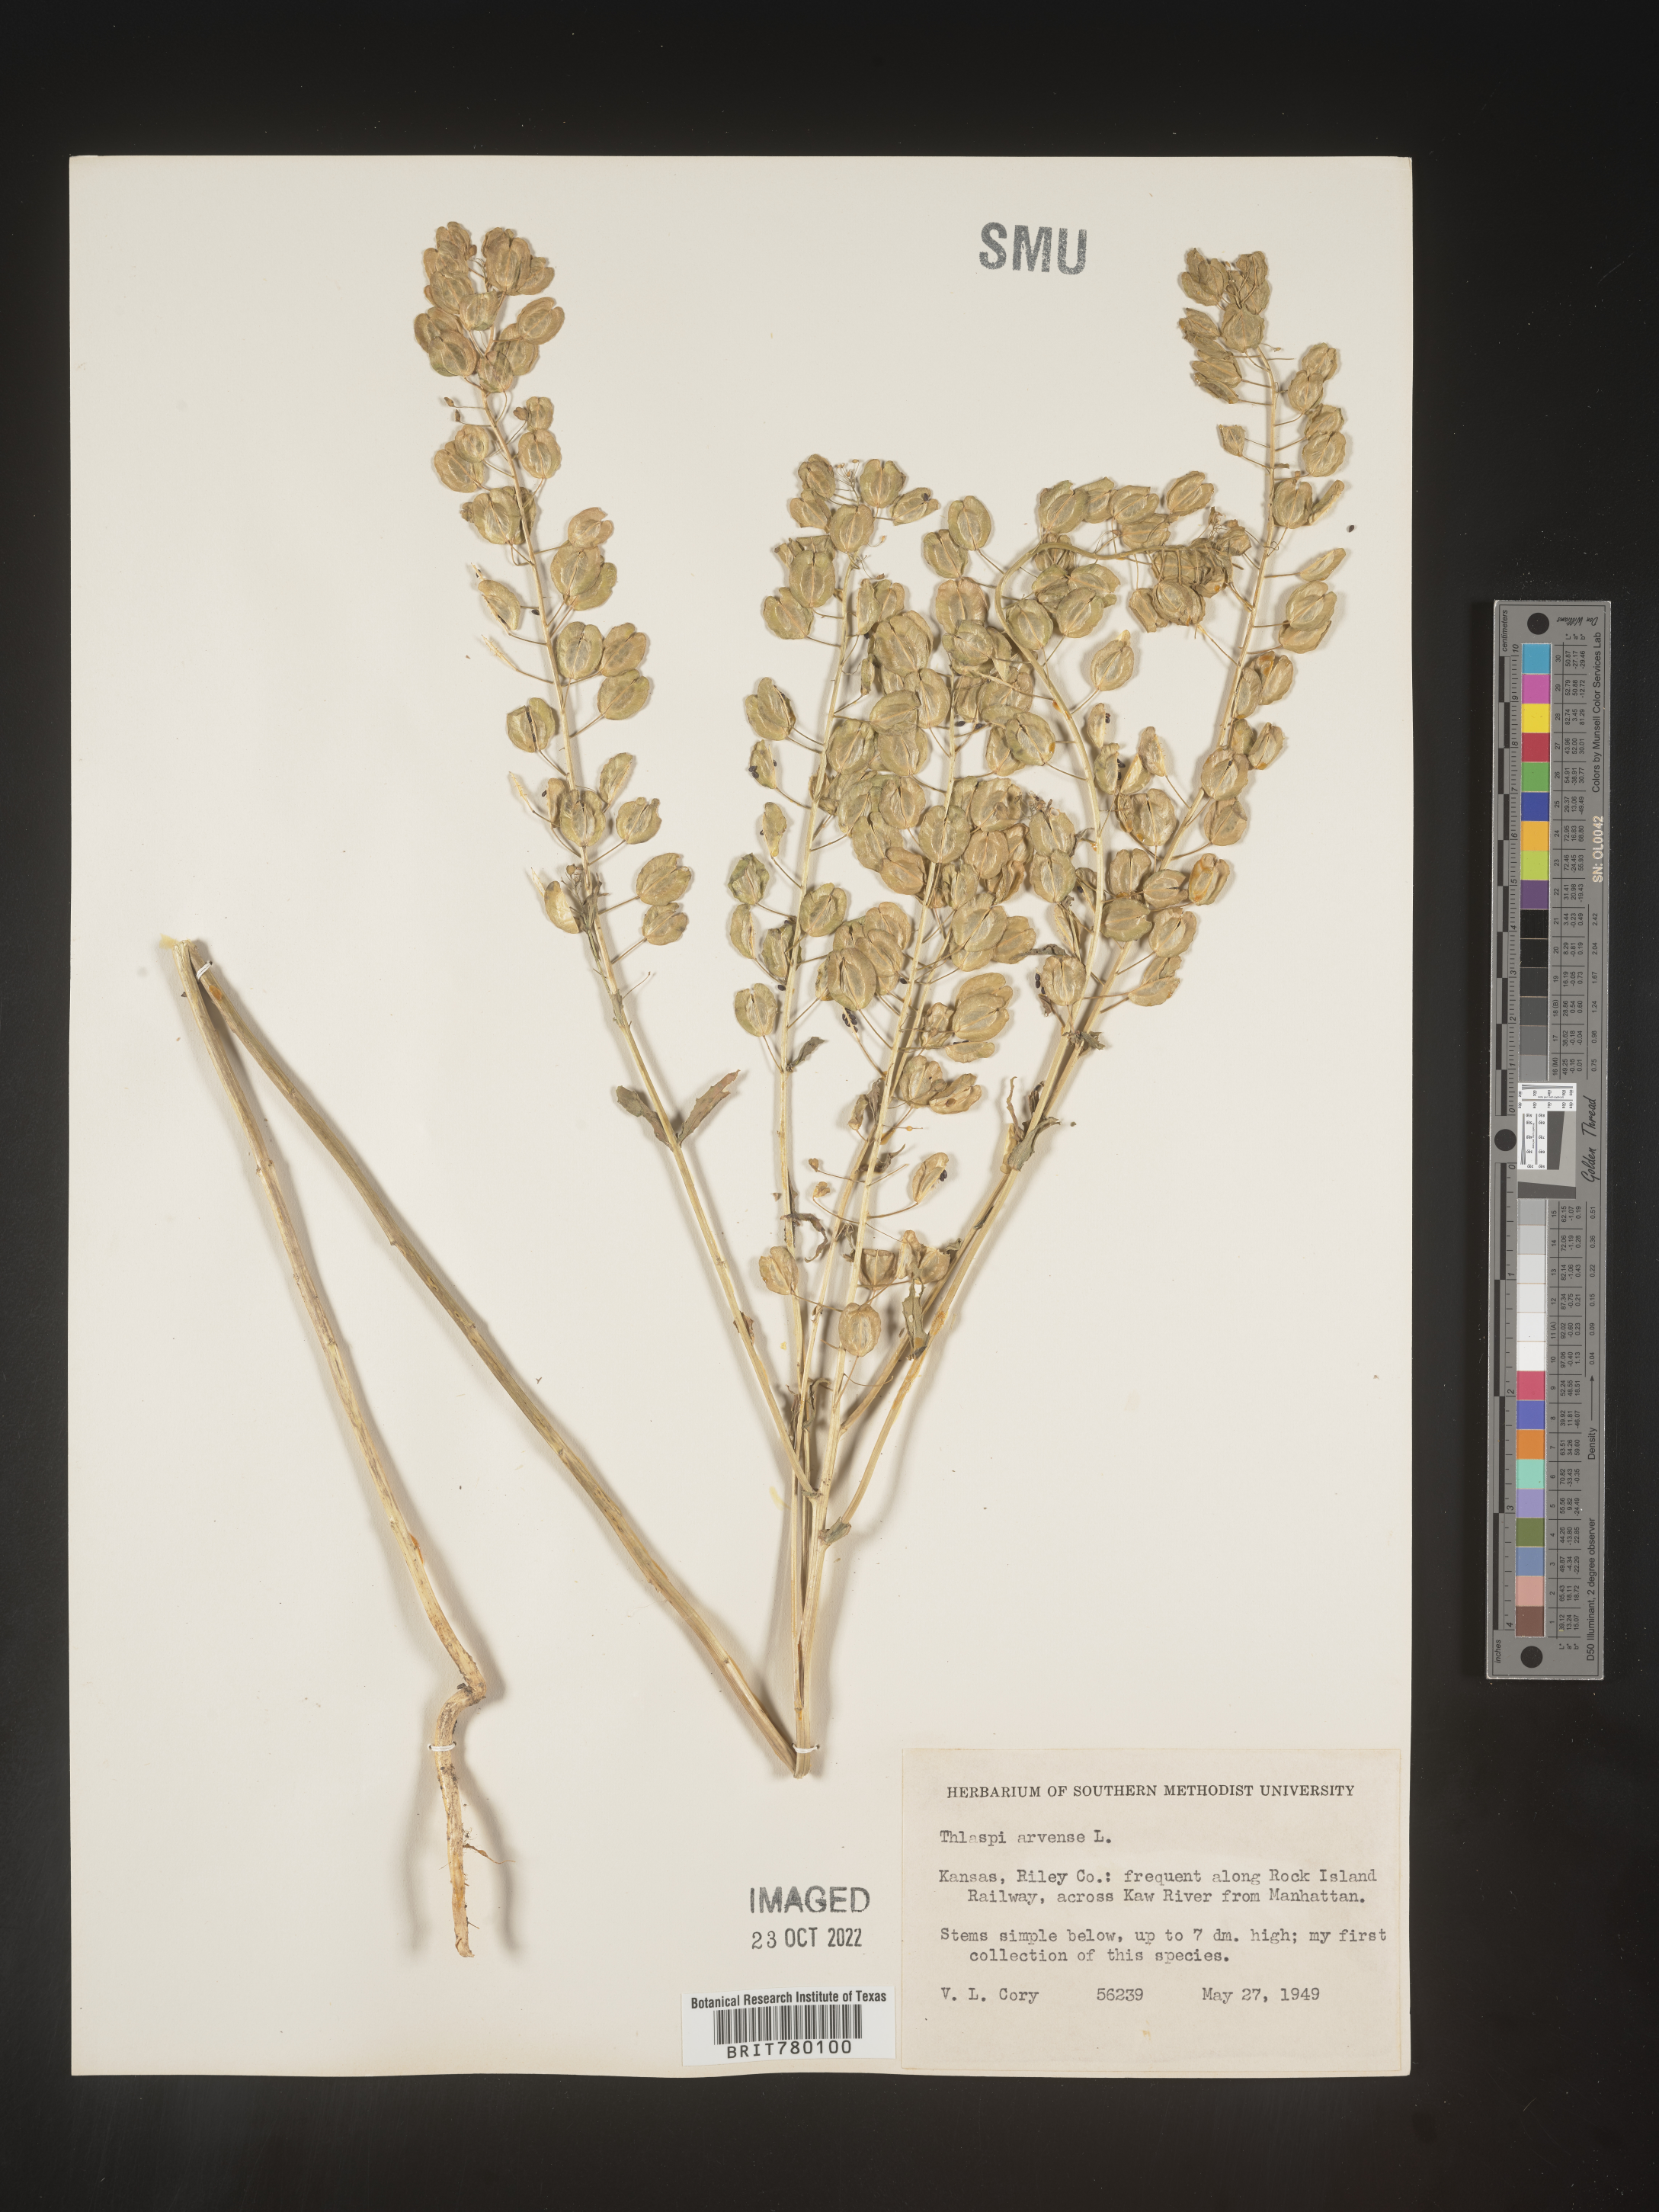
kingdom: Plantae
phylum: Tracheophyta
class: Magnoliopsida
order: Brassicales
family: Brassicaceae
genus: Thlaspi
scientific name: Thlaspi arvense
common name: Field pennycress
